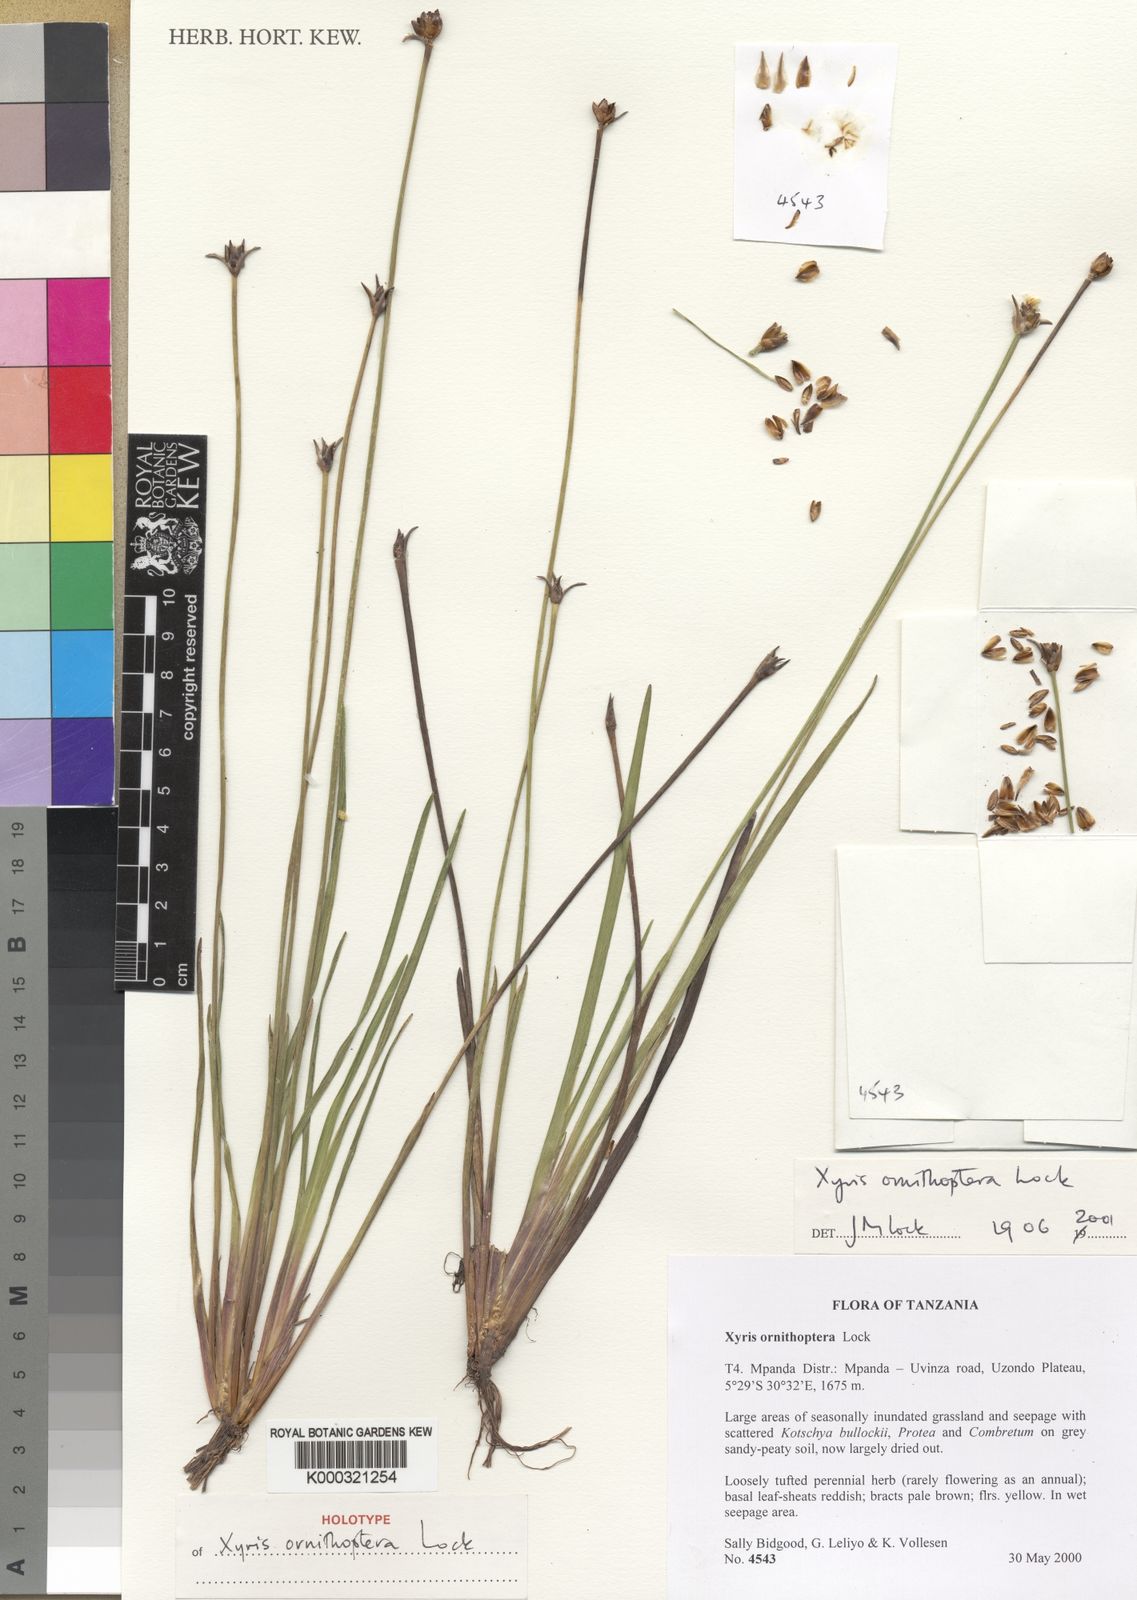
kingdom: Plantae
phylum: Tracheophyta
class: Liliopsida
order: Poales
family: Xyridaceae
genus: Xyris
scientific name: Xyris ornithoptera
